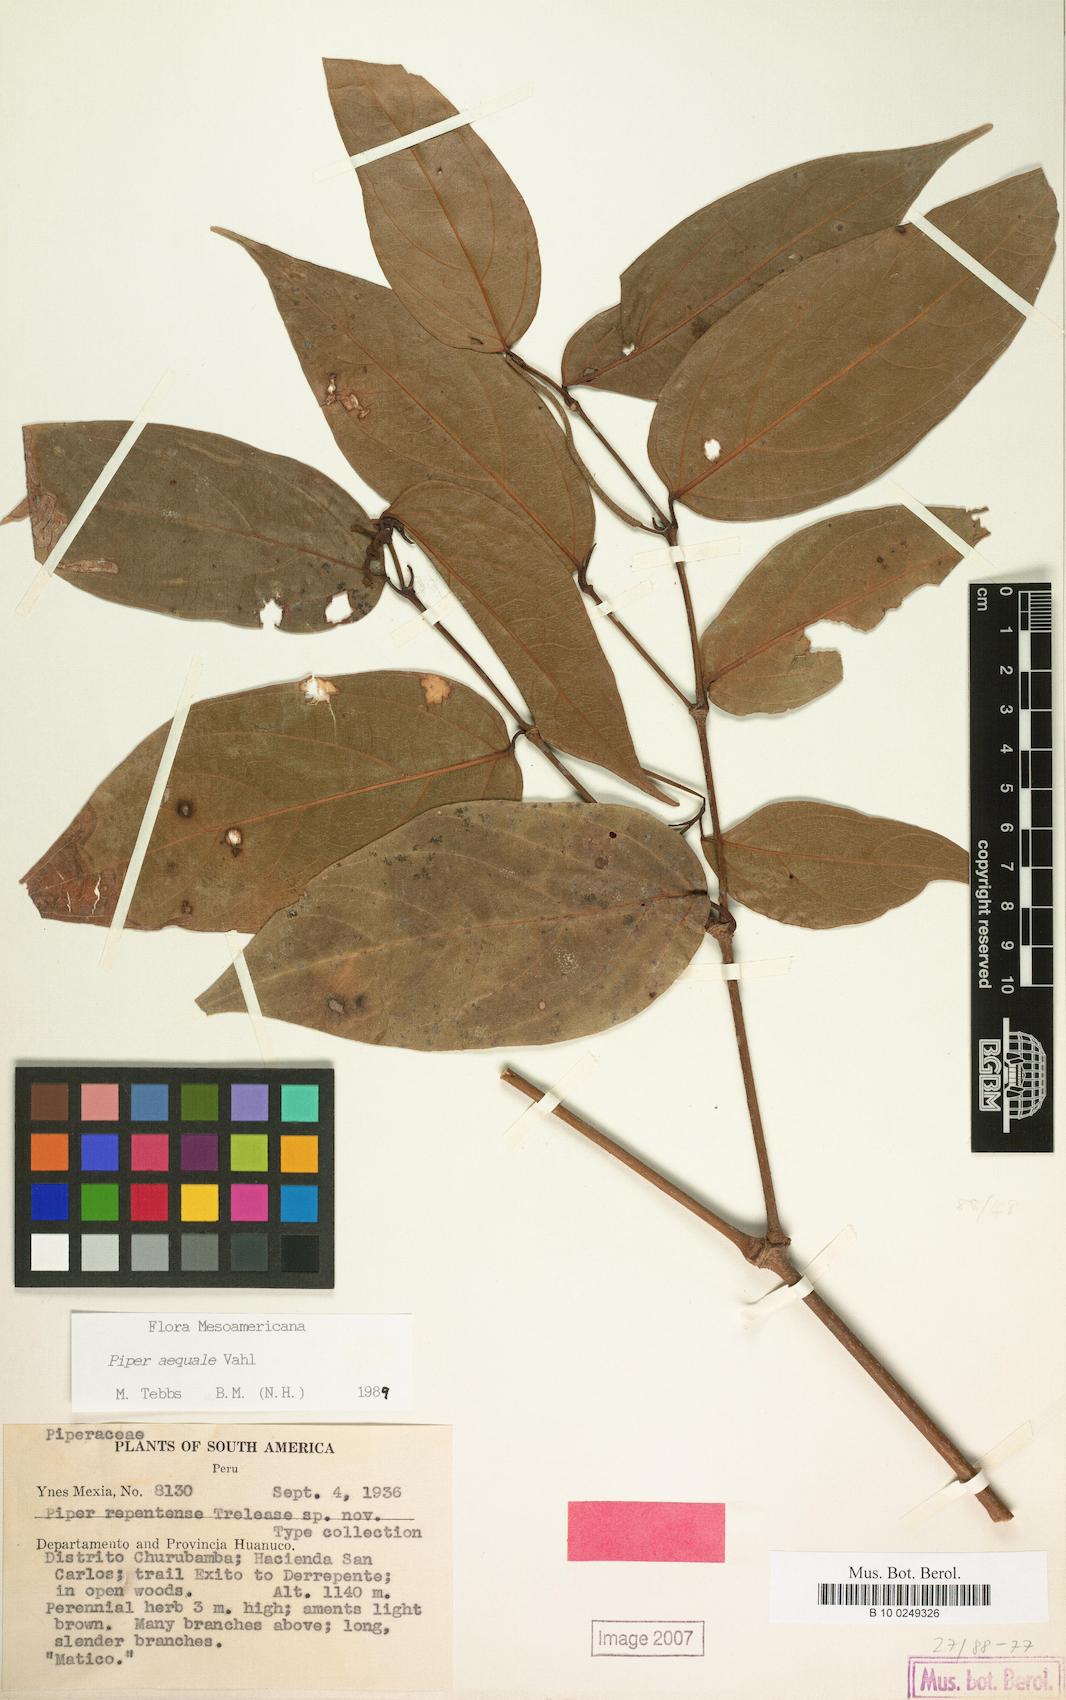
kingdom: Plantae
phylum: Tracheophyta
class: Magnoliopsida
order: Piperales
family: Piperaceae
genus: Piper
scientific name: Piper aequale
